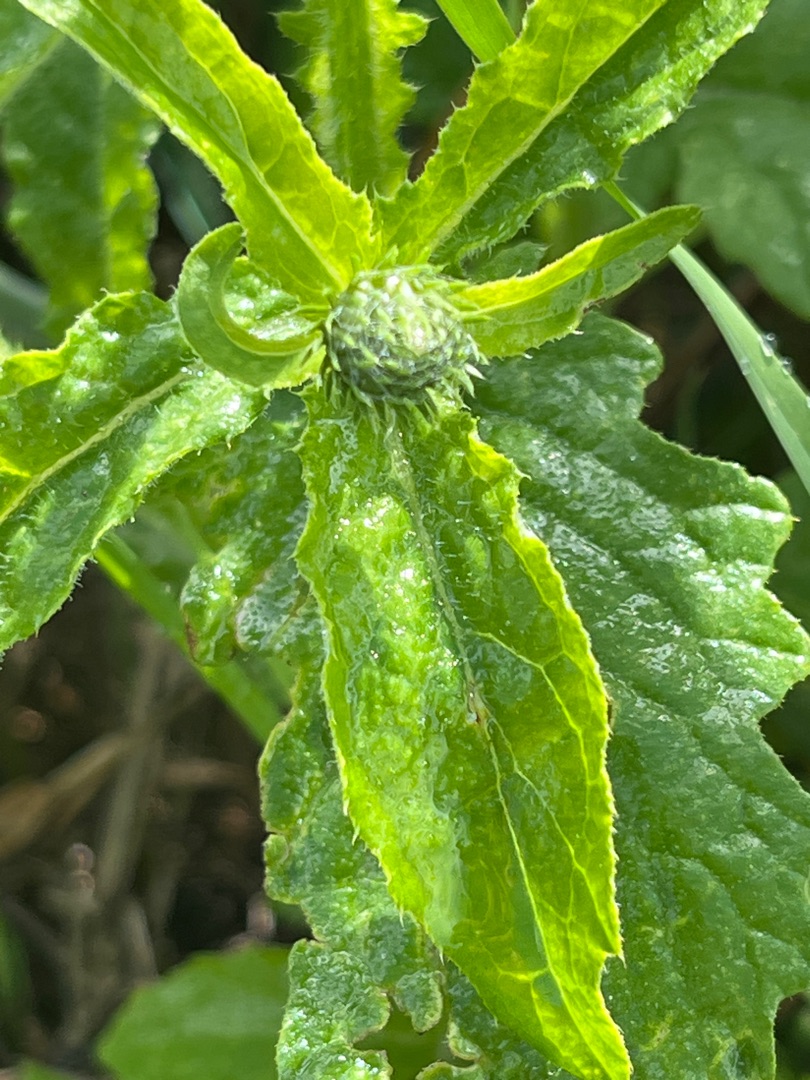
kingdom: Plantae
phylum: Tracheophyta
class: Magnoliopsida
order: Asterales
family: Asteraceae
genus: Carduus
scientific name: Carduus crispus
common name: Kruset tidsel
